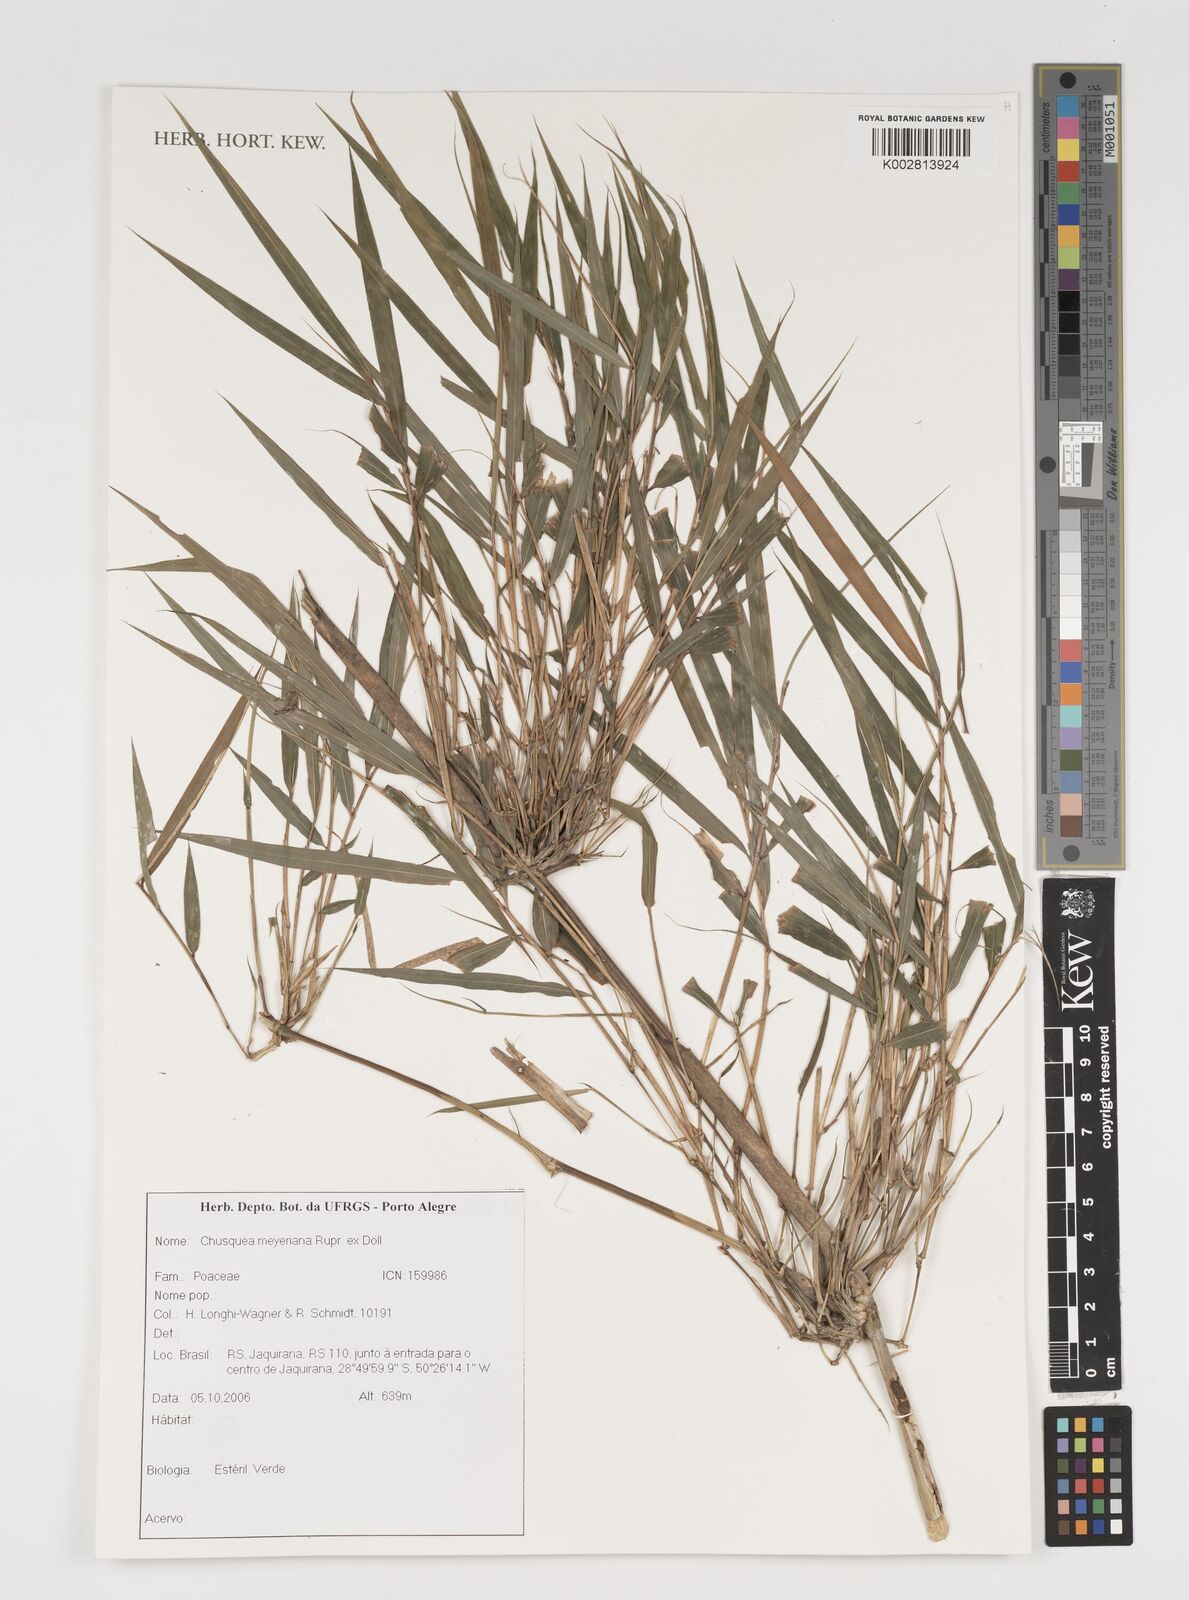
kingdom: Plantae
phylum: Tracheophyta
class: Liliopsida
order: Poales
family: Poaceae
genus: Chusquea
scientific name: Chusquea meyeriana
